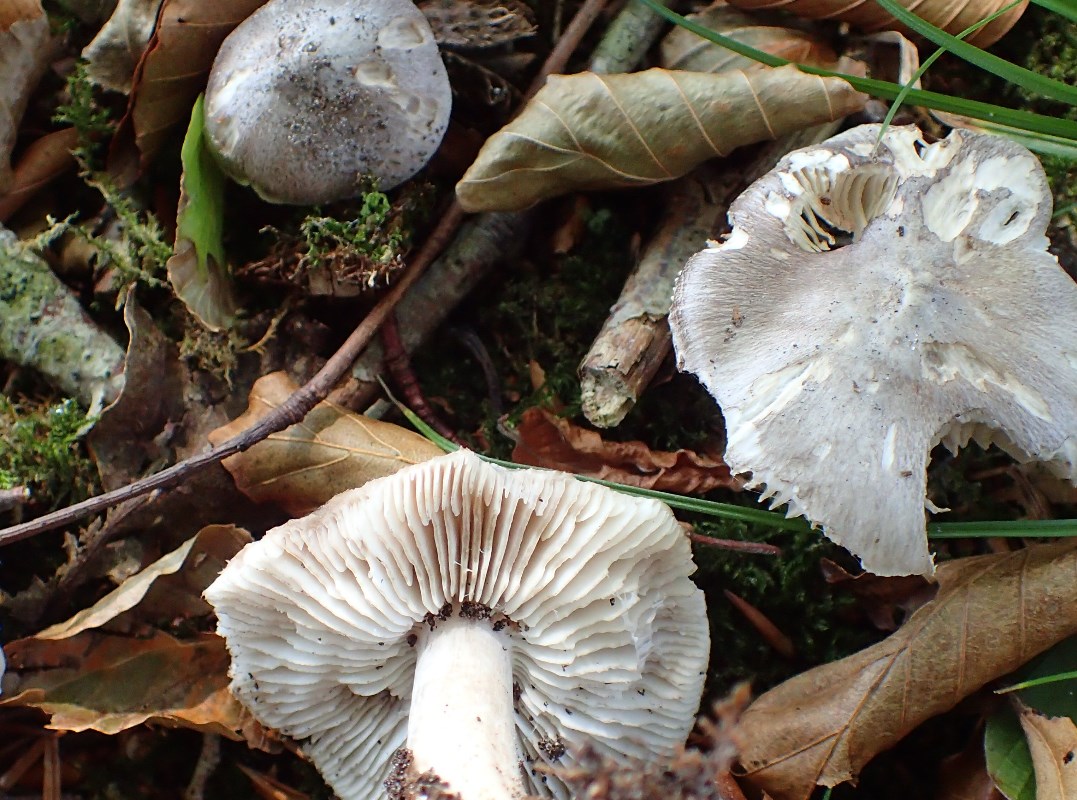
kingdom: Fungi
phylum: Basidiomycota
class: Agaricomycetes
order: Agaricales
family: Tricholomataceae
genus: Tricholoma
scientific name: Tricholoma sciodes
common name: stribet ridderhat
